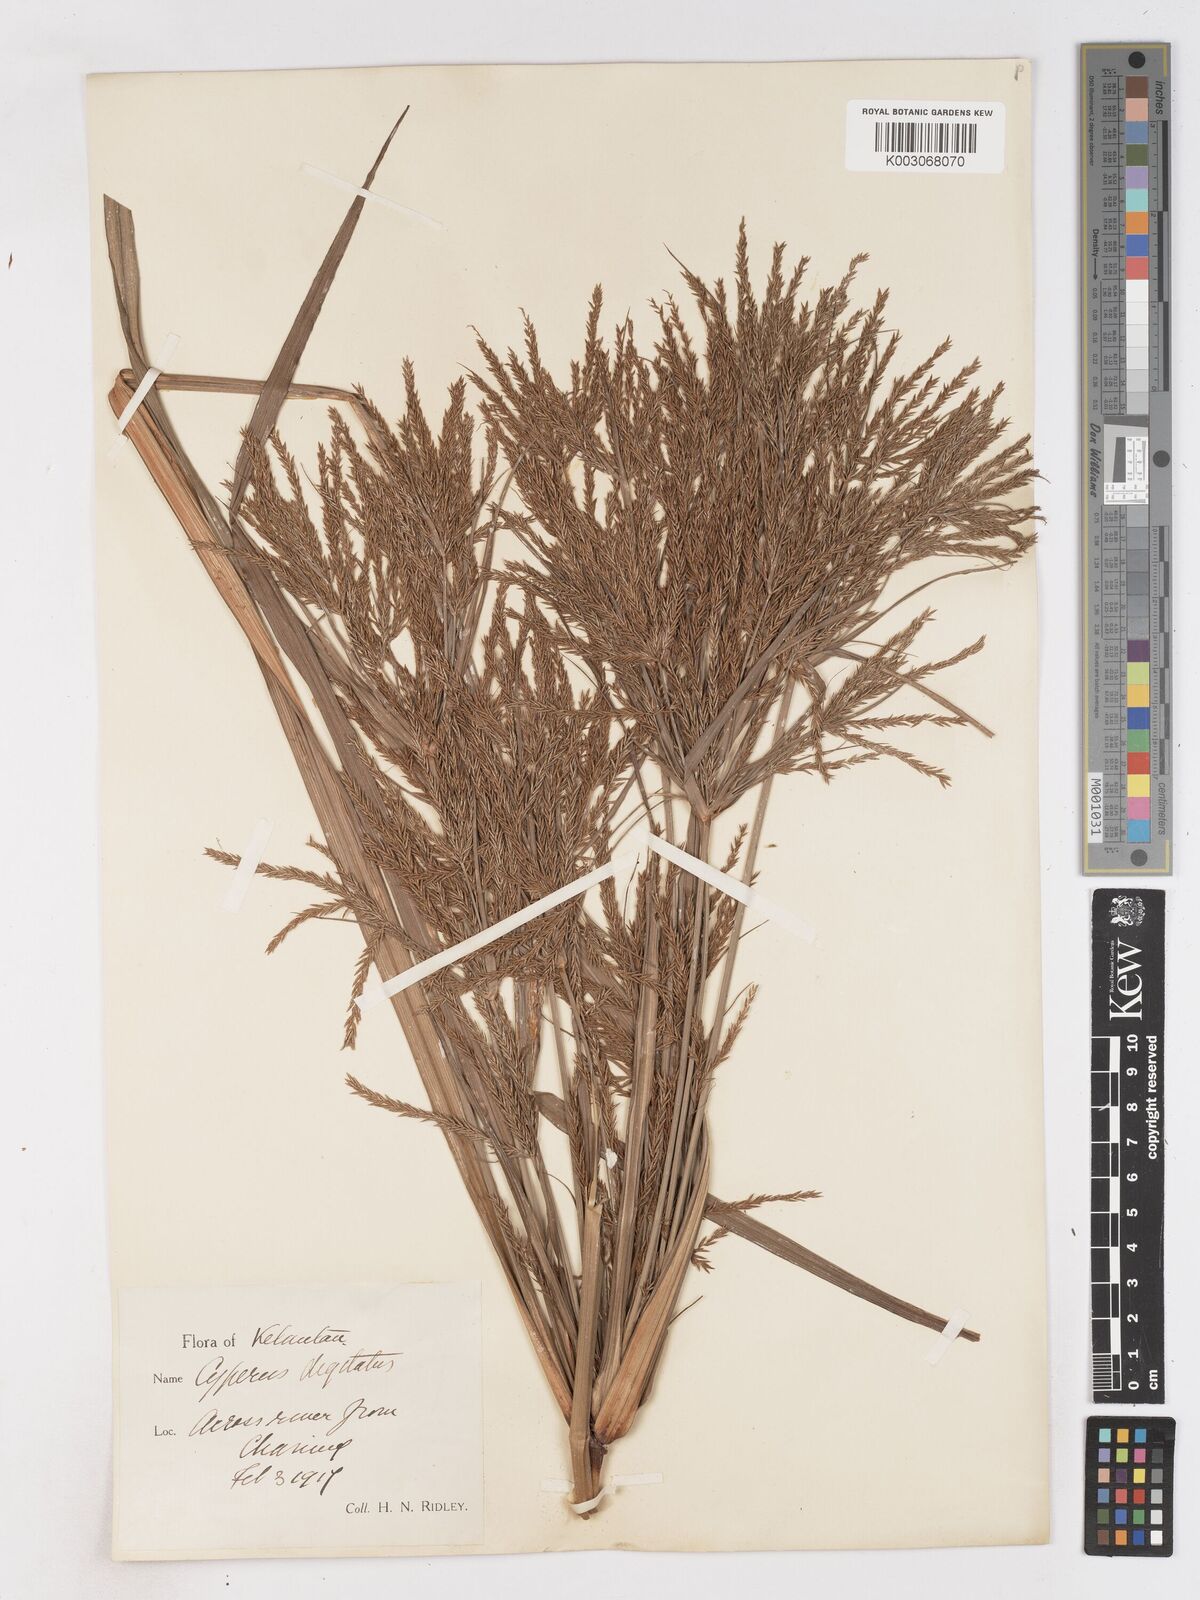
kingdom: Plantae
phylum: Tracheophyta
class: Liliopsida
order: Poales
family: Cyperaceae
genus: Cyperus
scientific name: Cyperus digitatus
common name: Finger flatsedge
